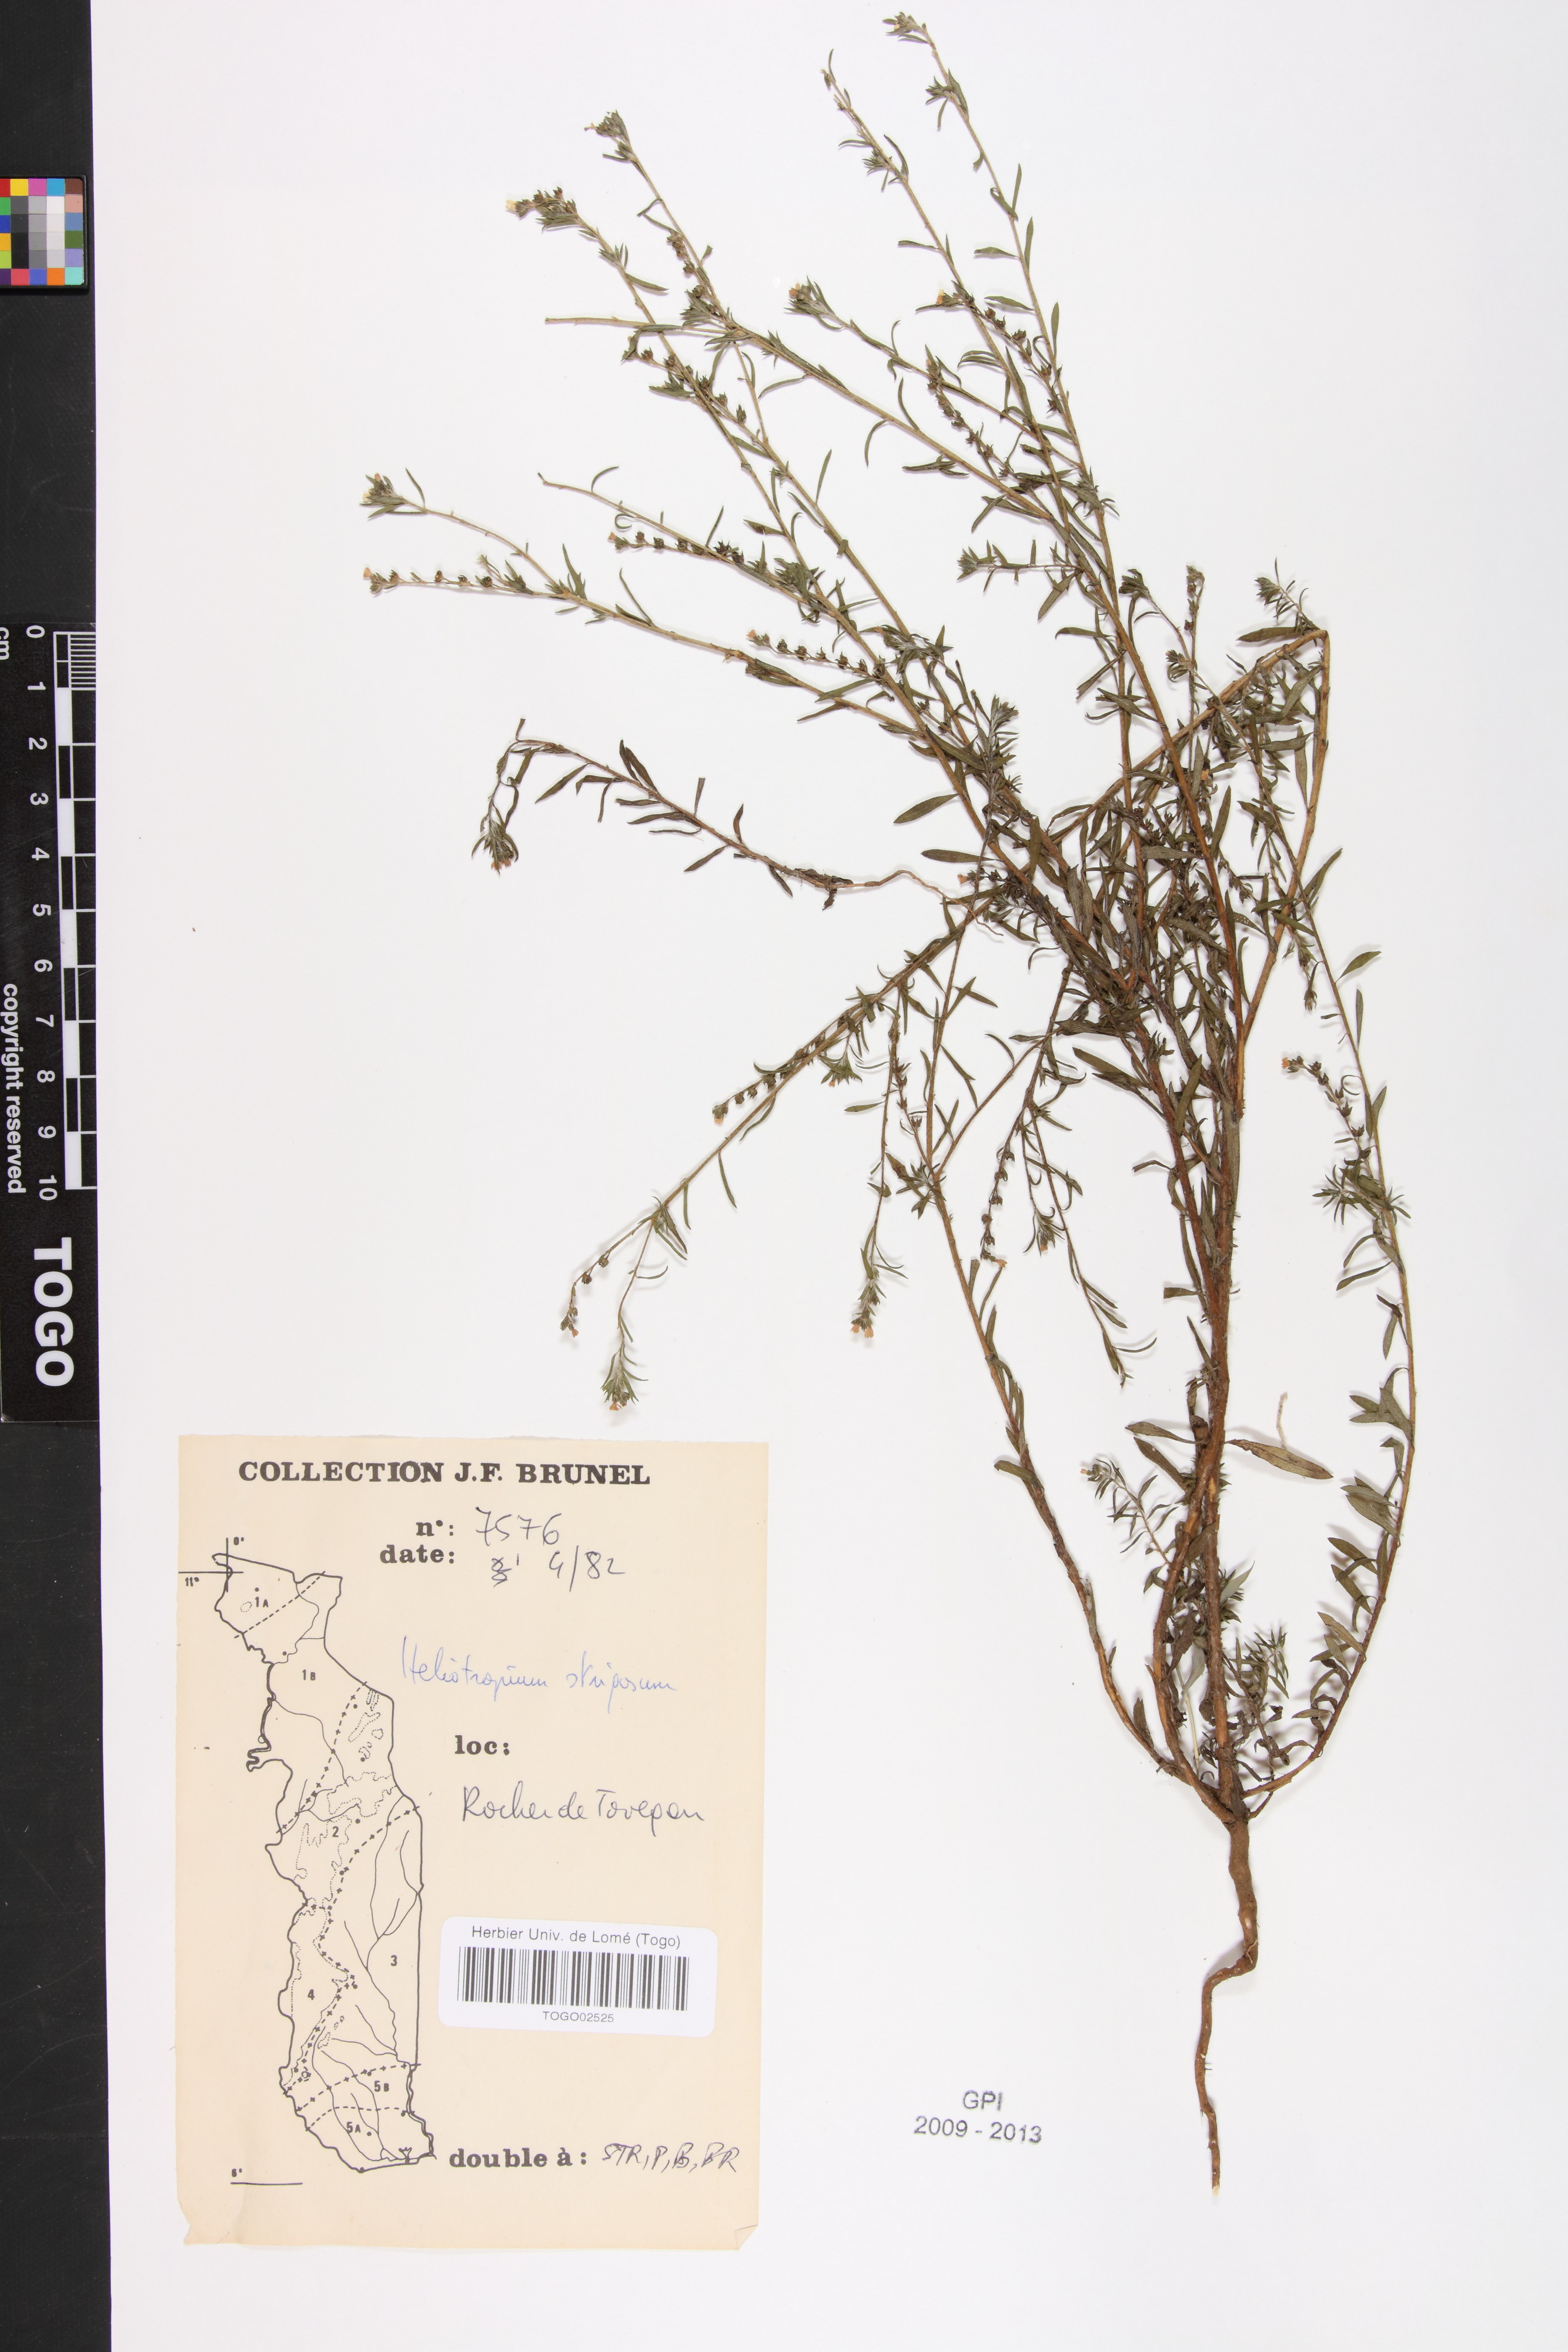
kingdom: Plantae
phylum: Tracheophyta
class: Magnoliopsida
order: Boraginales
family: Heliotropiaceae
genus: Euploca
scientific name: Euploca strigosa
